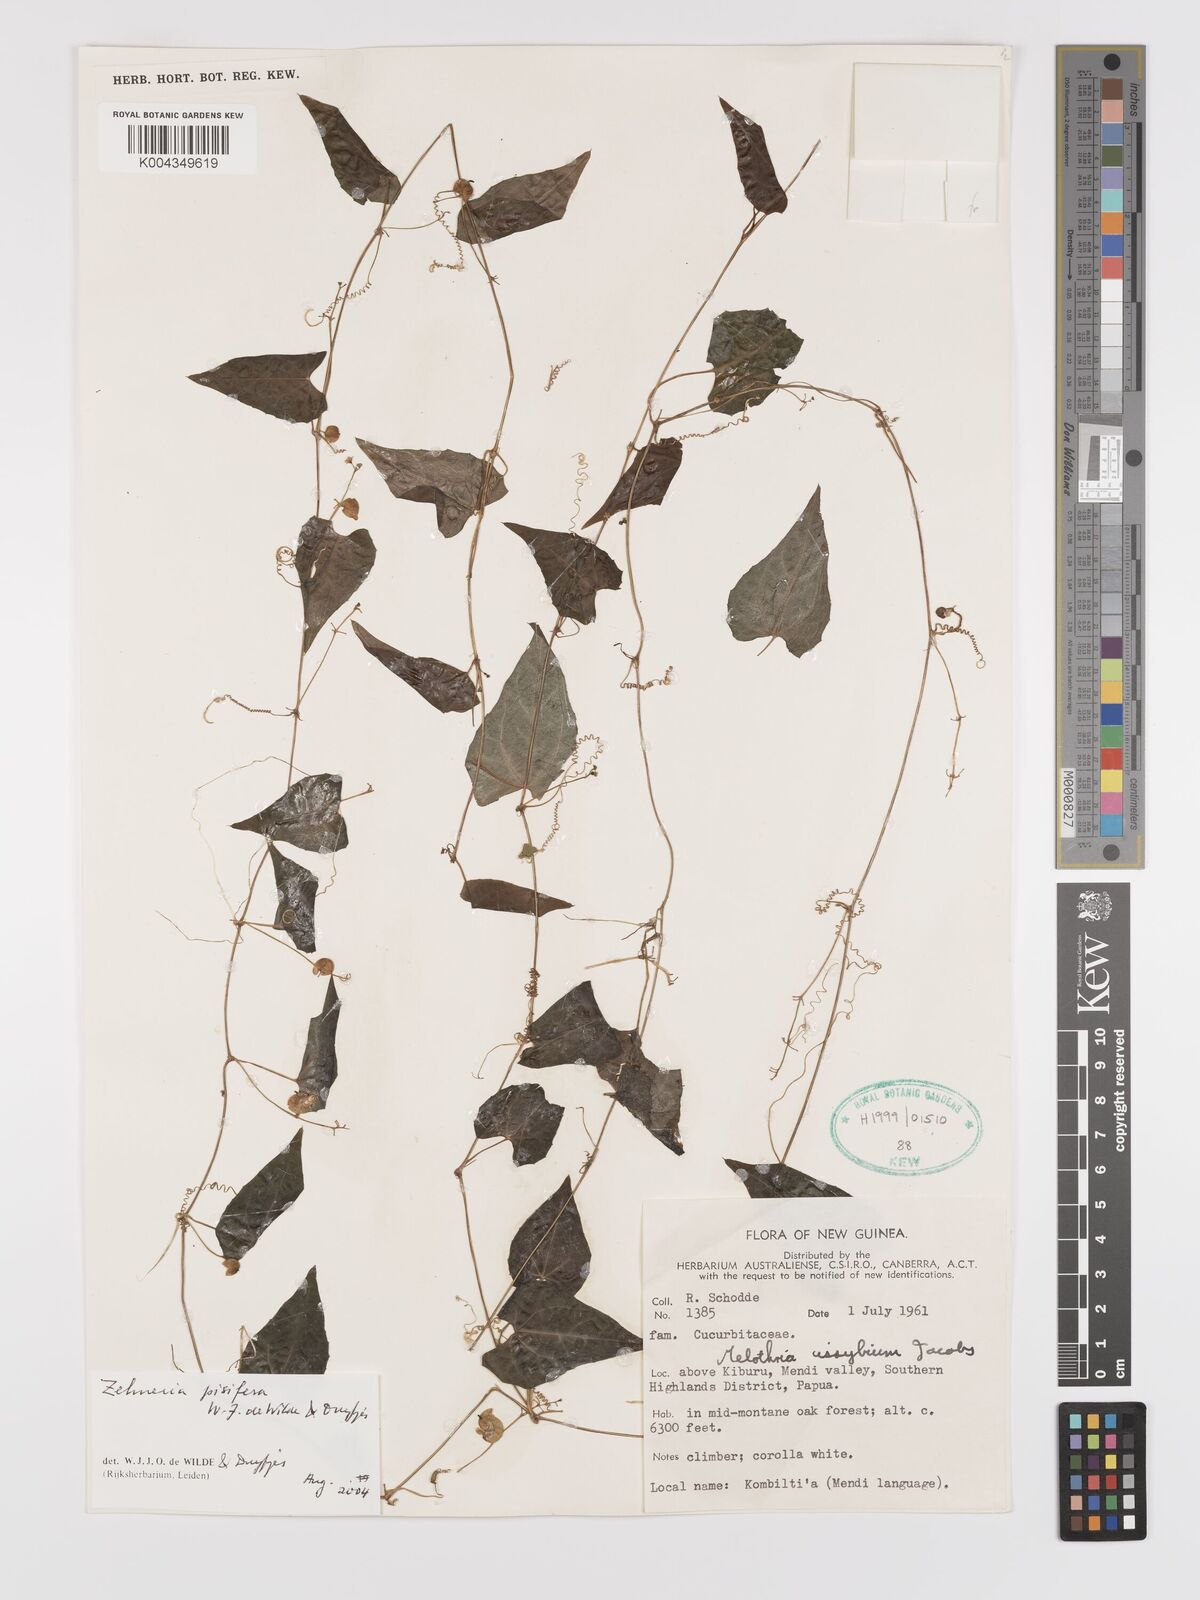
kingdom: Plantae
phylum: Tracheophyta
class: Magnoliopsida
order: Cucurbitales
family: Cucurbitaceae
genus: Zehneria
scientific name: Zehneria pisifera
